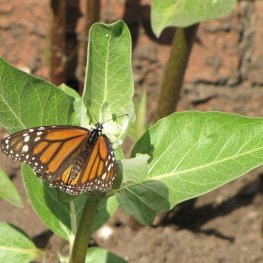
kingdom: Animalia
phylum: Arthropoda
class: Insecta
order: Lepidoptera
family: Nymphalidae
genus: Danaus
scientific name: Danaus plexippus
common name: Monarch
